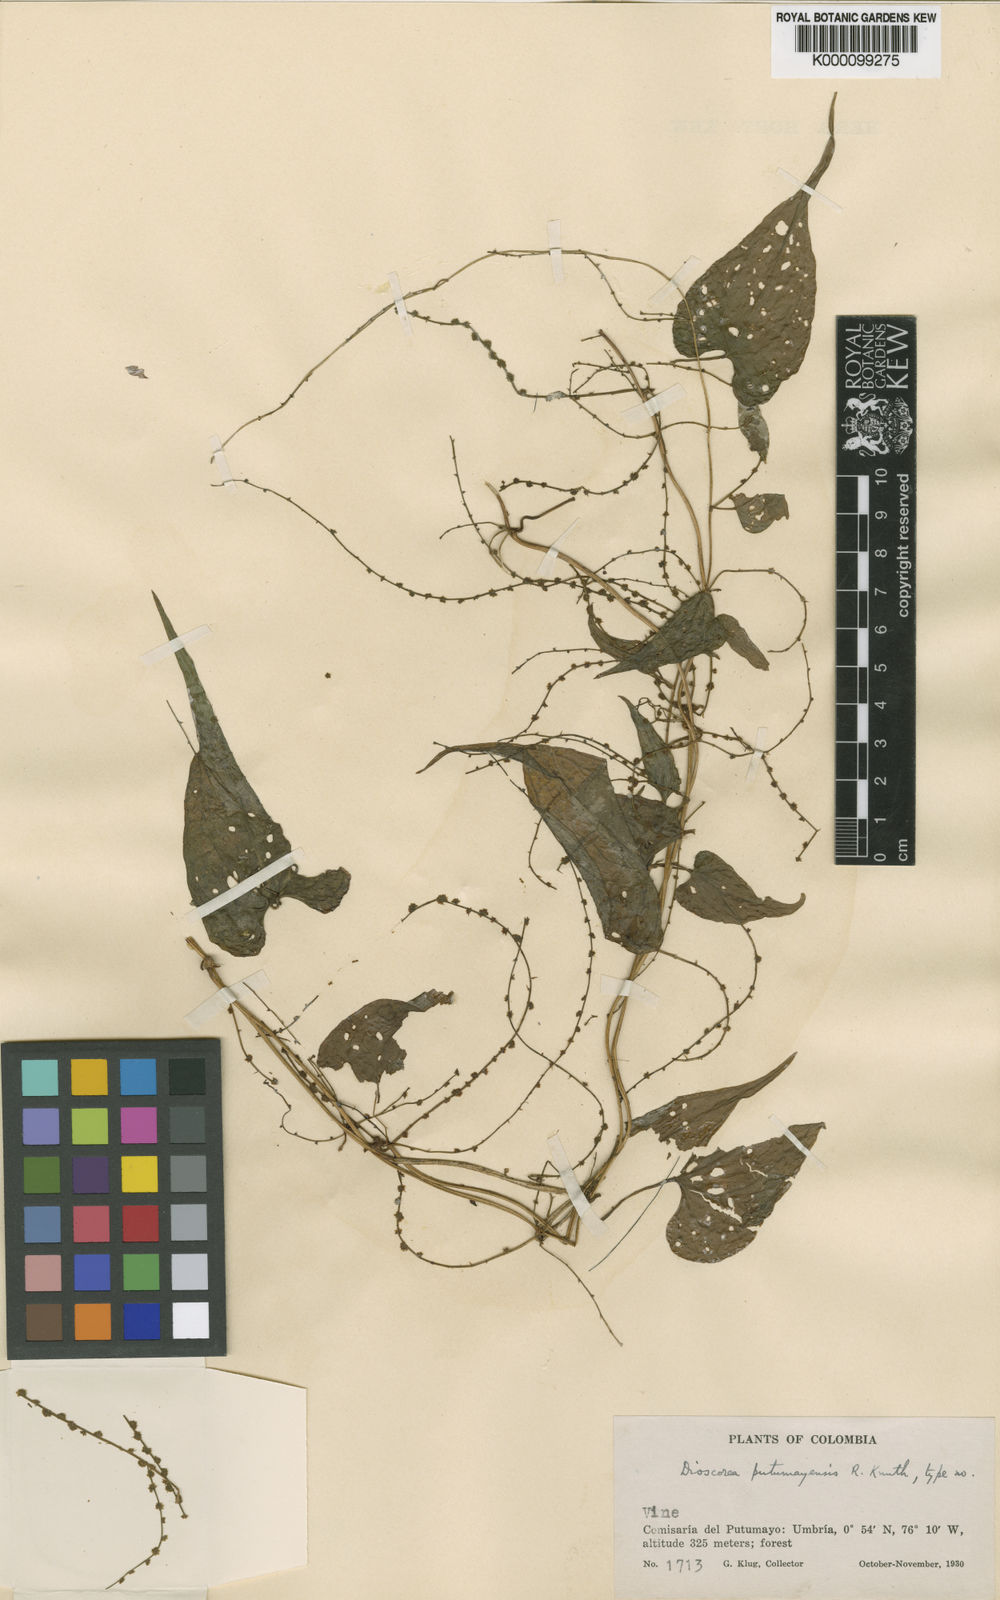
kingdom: Plantae
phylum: Tracheophyta
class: Liliopsida
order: Dioscoreales
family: Dioscoreaceae
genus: Dioscorea
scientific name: Dioscorea putumayensis
